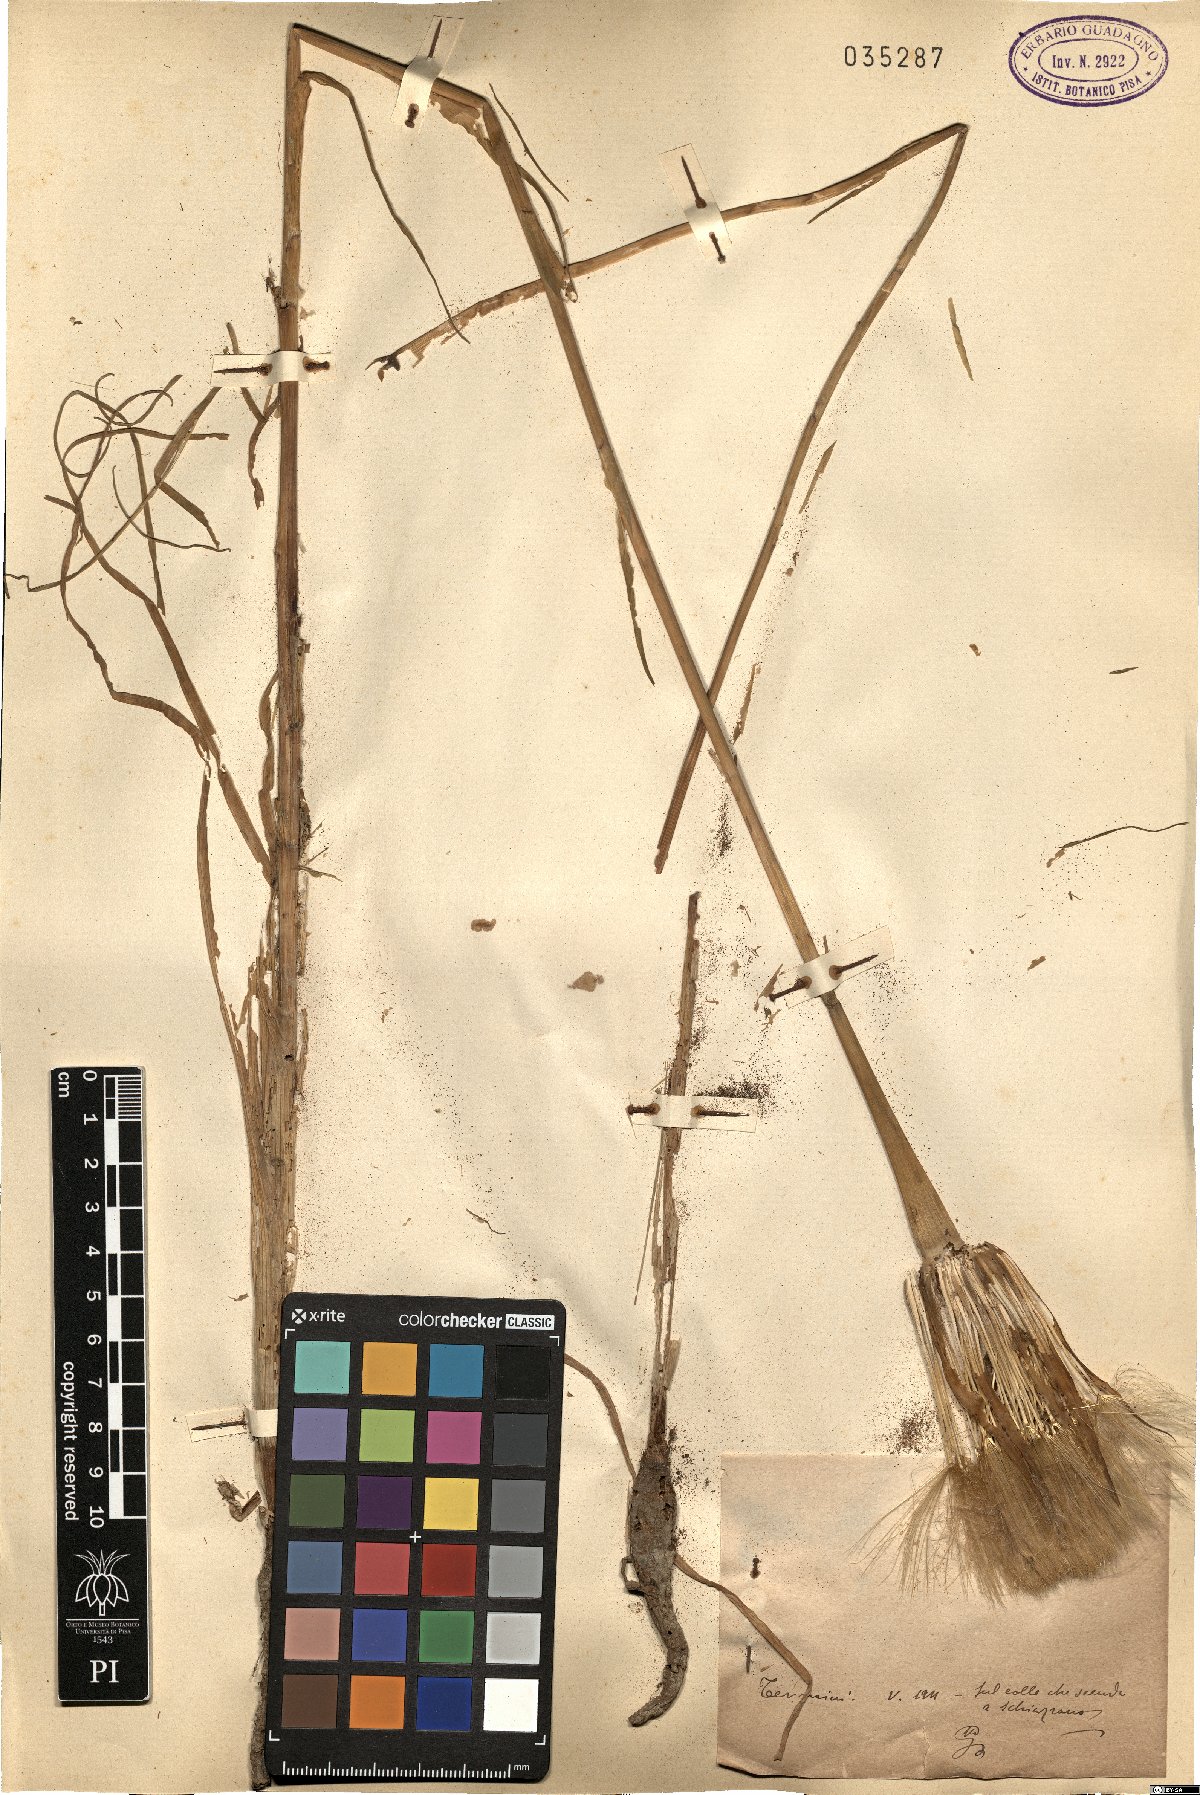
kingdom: Plantae
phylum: Tracheophyta
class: Magnoliopsida
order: Asterales
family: Asteraceae
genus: Tragopogon
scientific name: Tragopogon
